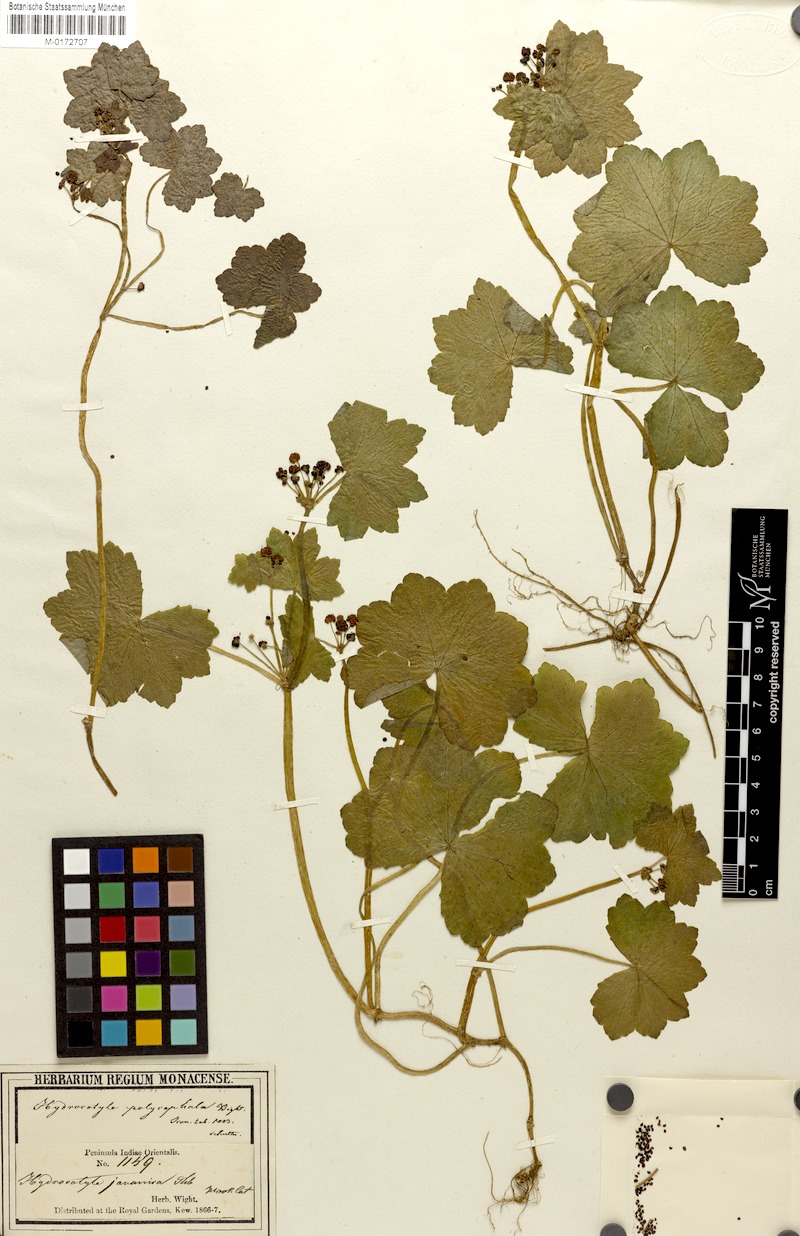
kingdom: Plantae
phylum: Tracheophyta
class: Magnoliopsida
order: Apiales
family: Araliaceae
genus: Hydrocotyle
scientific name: Hydrocotyle javanica
